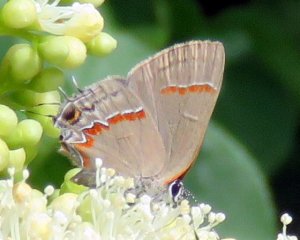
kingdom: Animalia
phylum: Arthropoda
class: Insecta
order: Lepidoptera
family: Lycaenidae
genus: Calycopis
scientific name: Calycopis cecrops
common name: Red-banded Hairstreak
